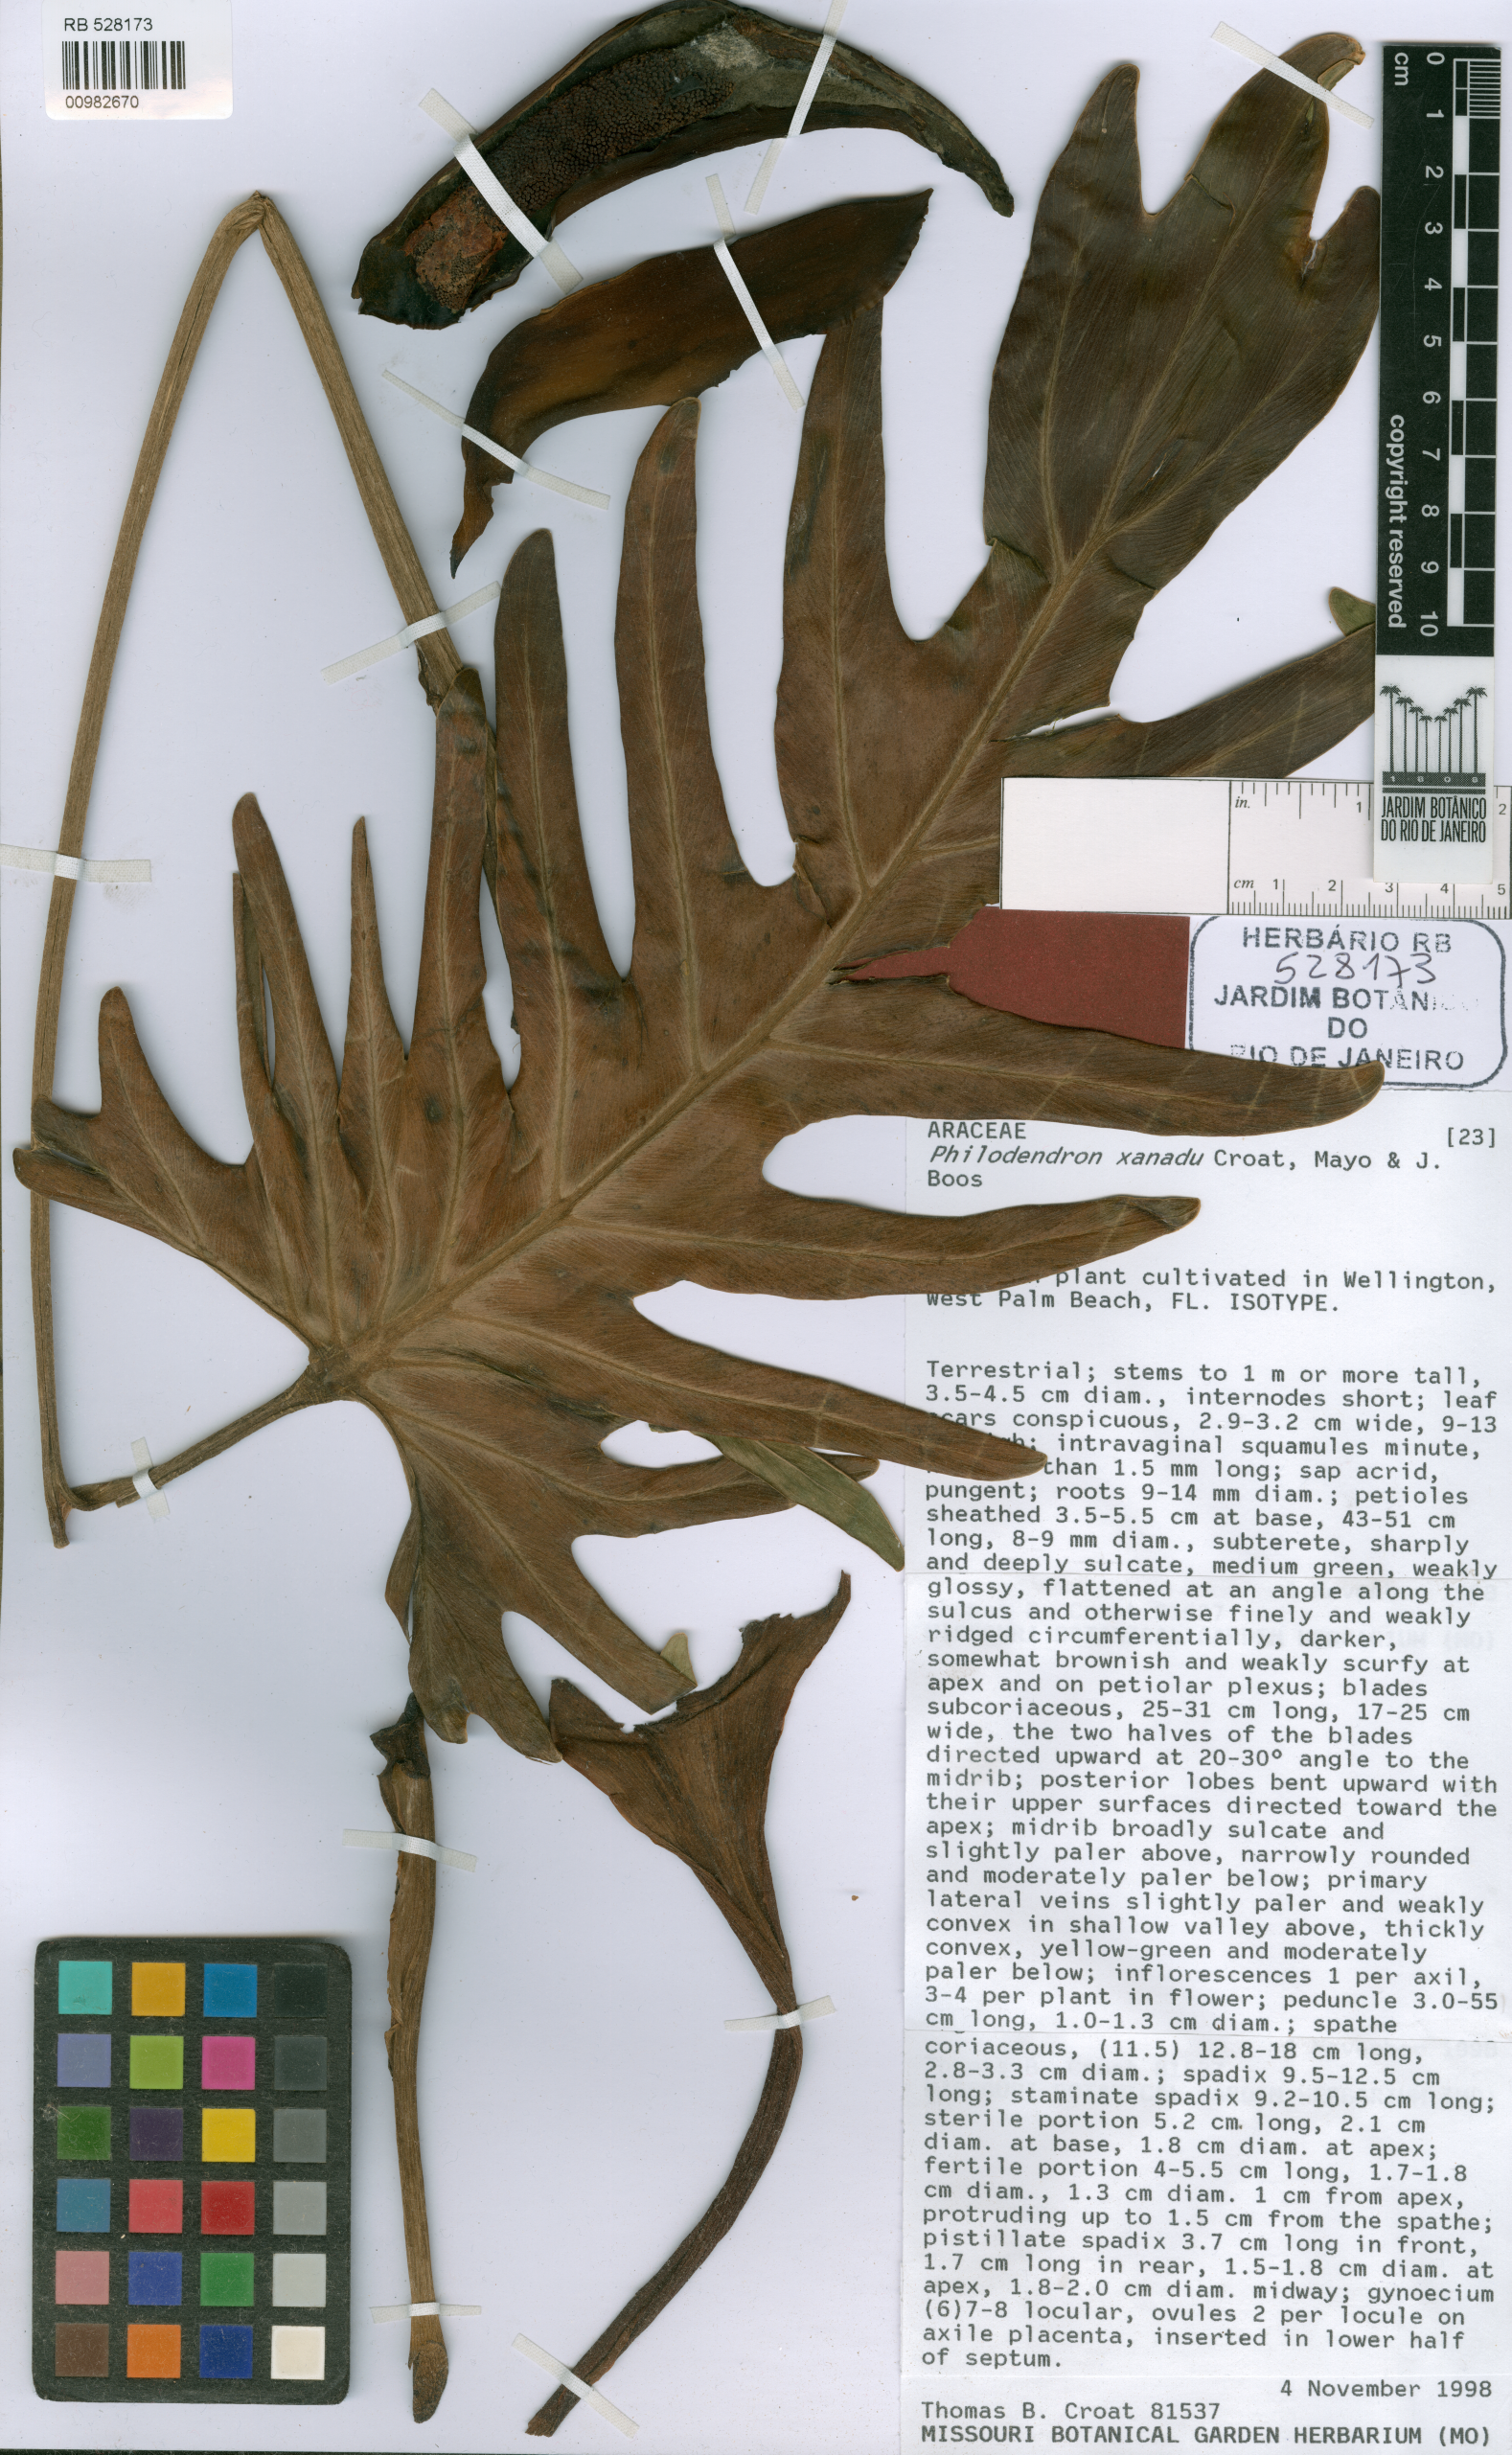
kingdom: Plantae
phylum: Tracheophyta
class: Liliopsida
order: Alismatales
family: Araceae
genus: Thaumatophyllum
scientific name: Thaumatophyllum xanadu
